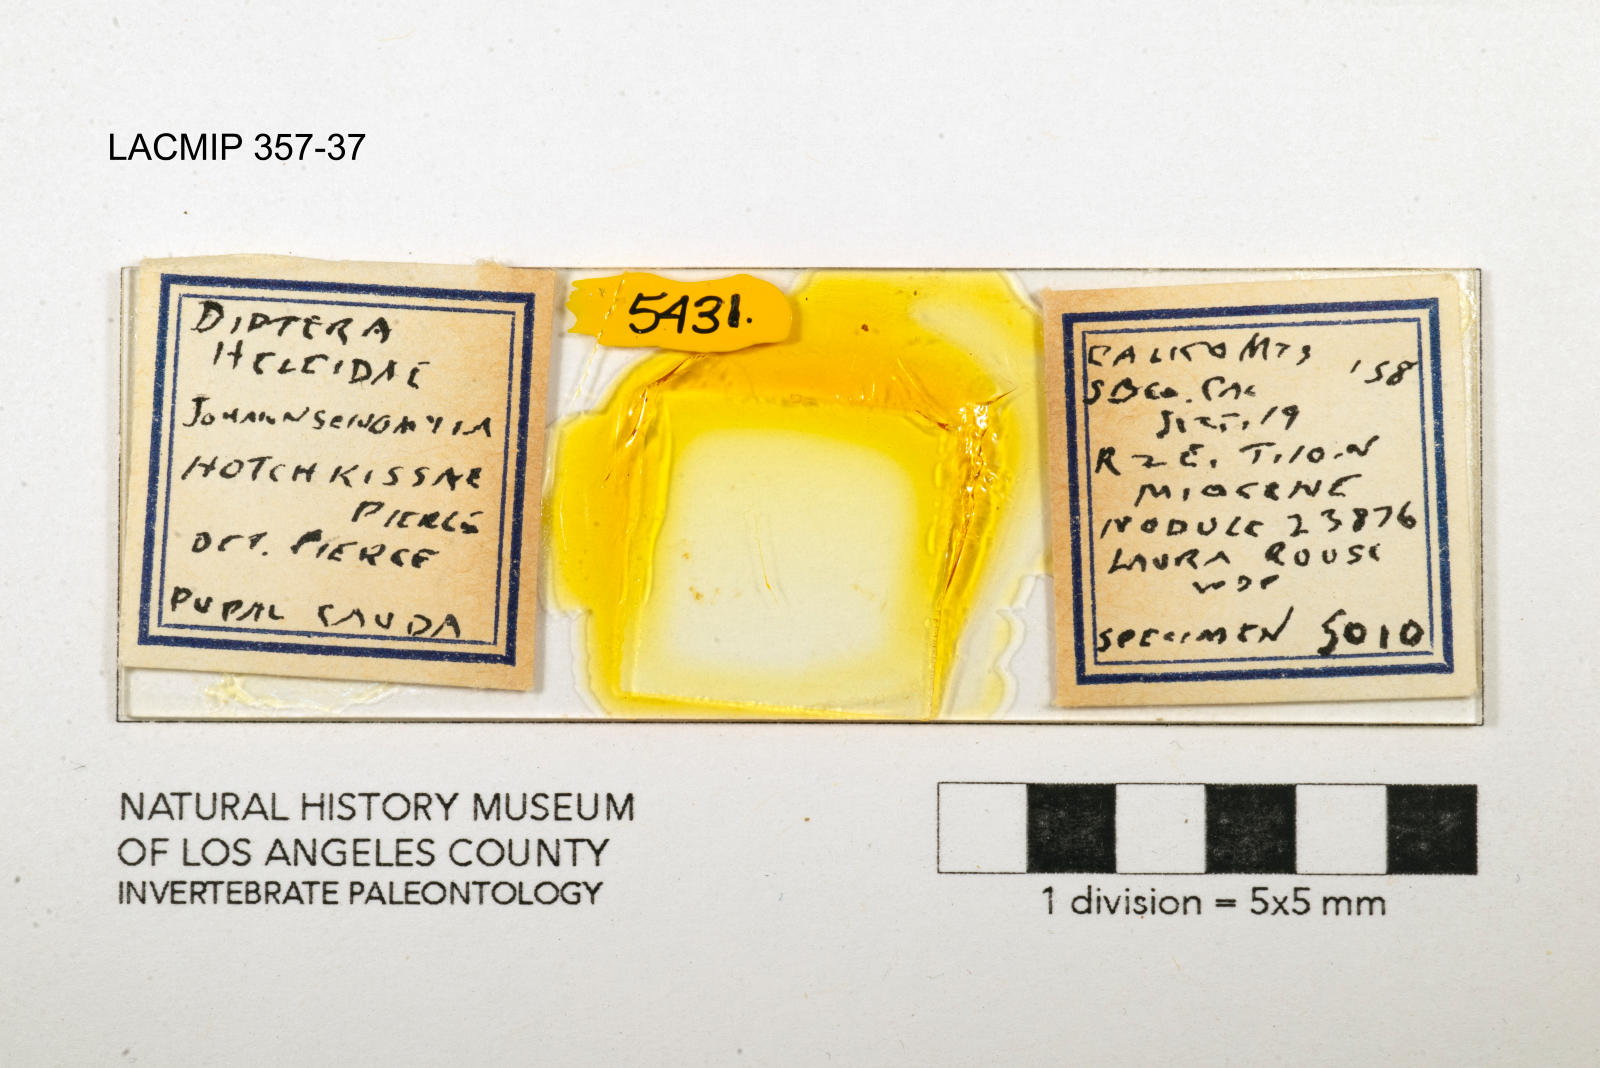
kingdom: Animalia
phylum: Arthropoda
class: Insecta
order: Diptera
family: Ceratopogonidae
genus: Johannsenomyia
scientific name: Johannsenomyia
